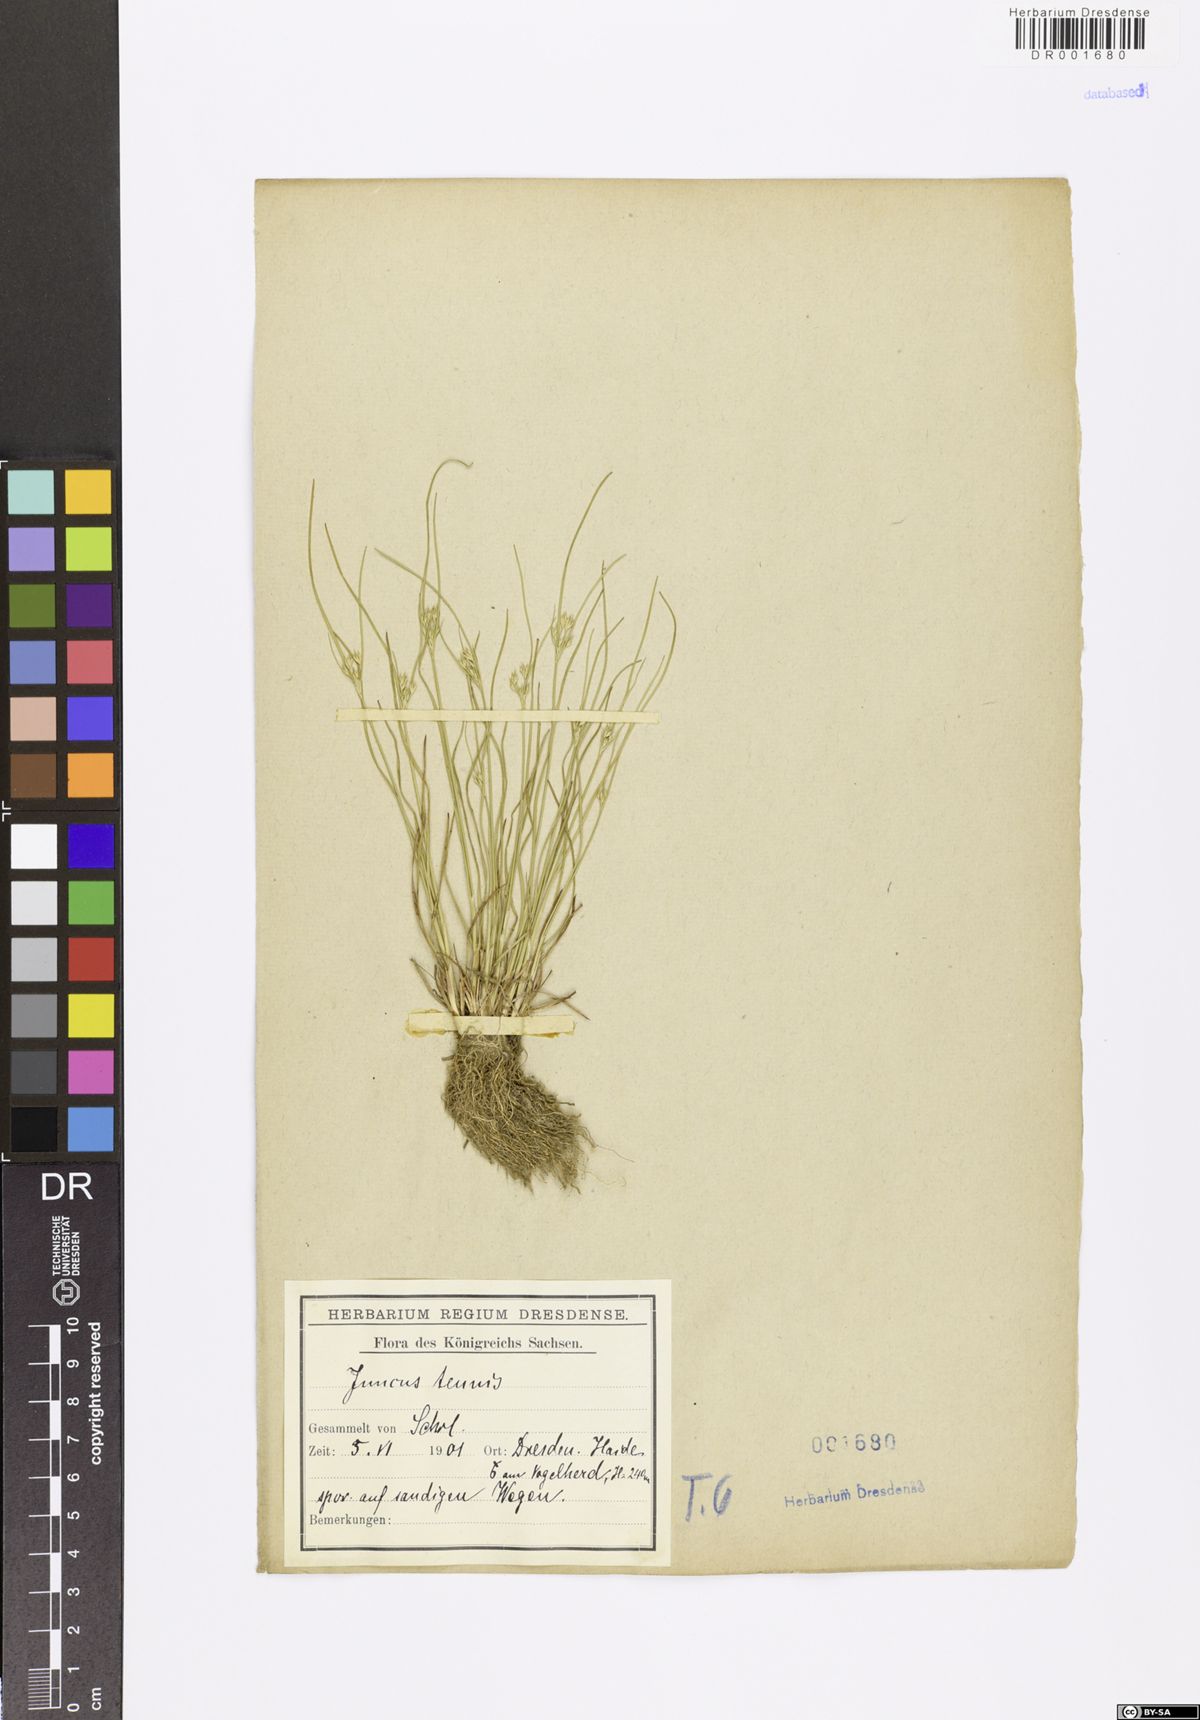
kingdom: Plantae
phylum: Tracheophyta
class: Liliopsida
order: Poales
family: Juncaceae
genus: Juncus
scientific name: Juncus tenuis
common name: Slender rush
